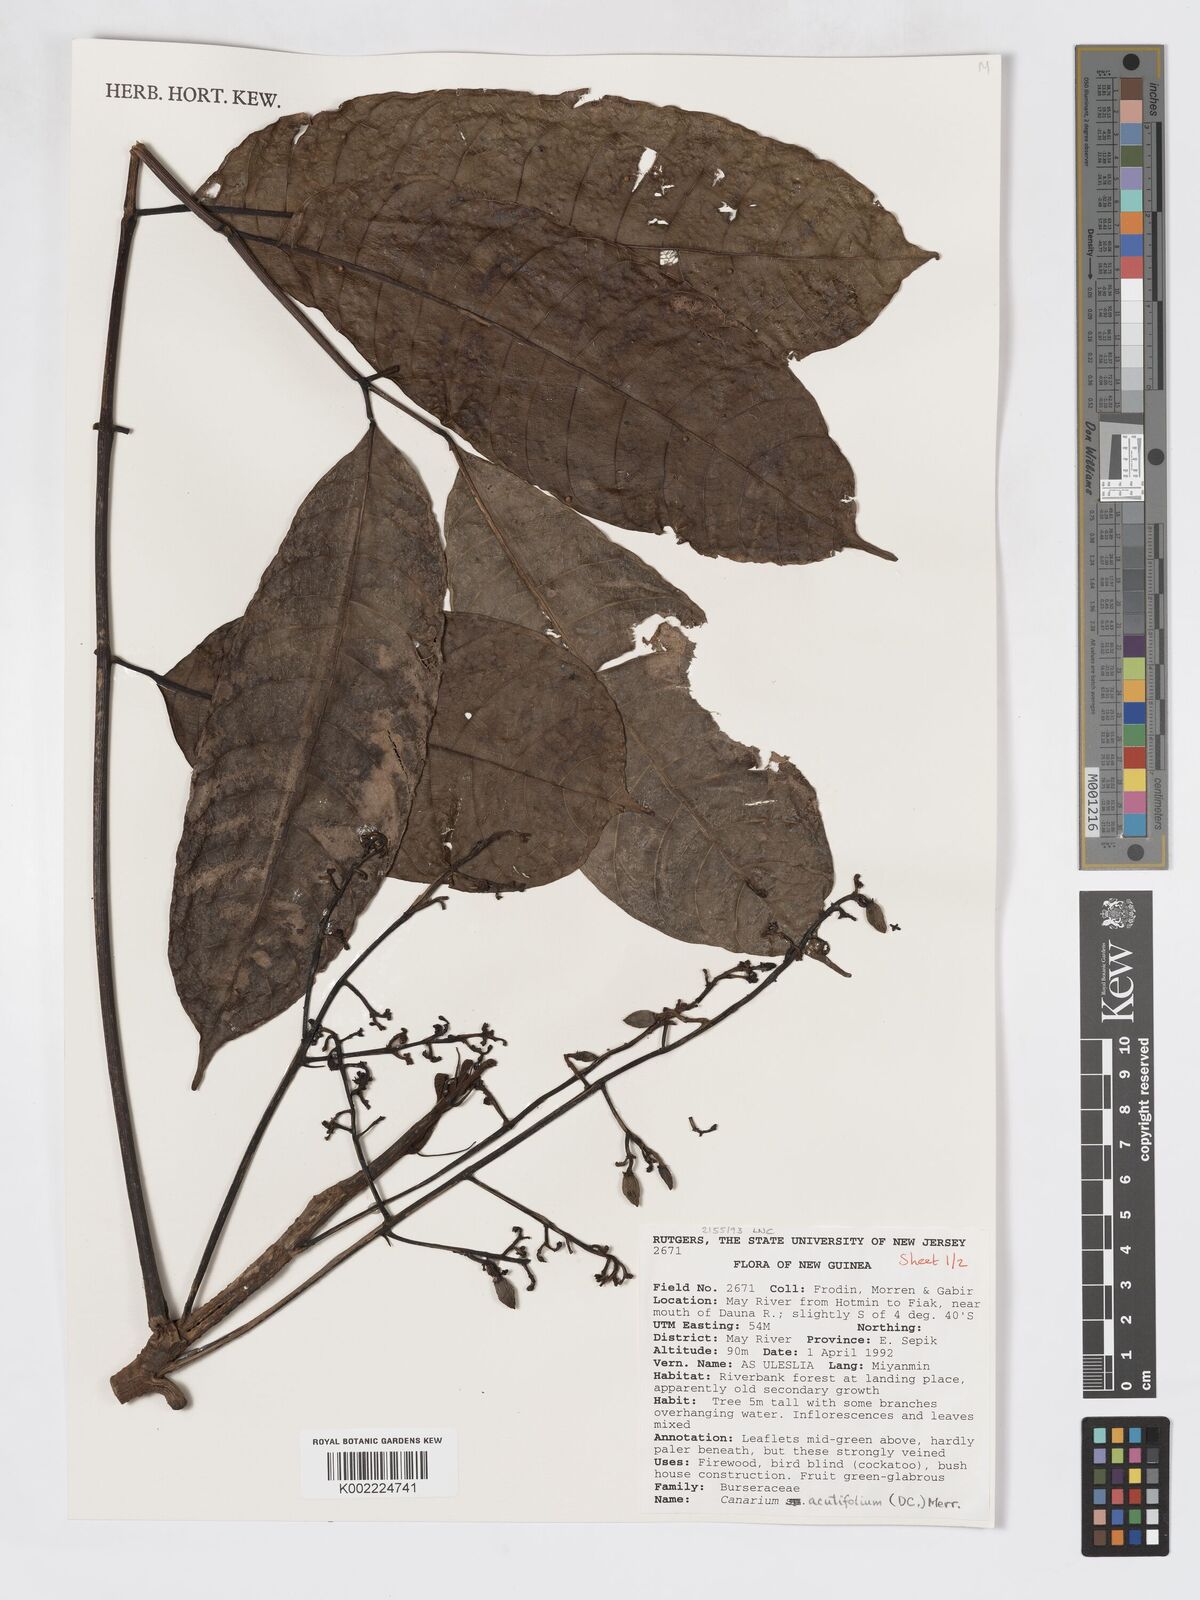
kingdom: Plantae
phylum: Tracheophyta
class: Magnoliopsida
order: Sapindales
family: Burseraceae
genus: Canarium
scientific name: Canarium acutifolium
